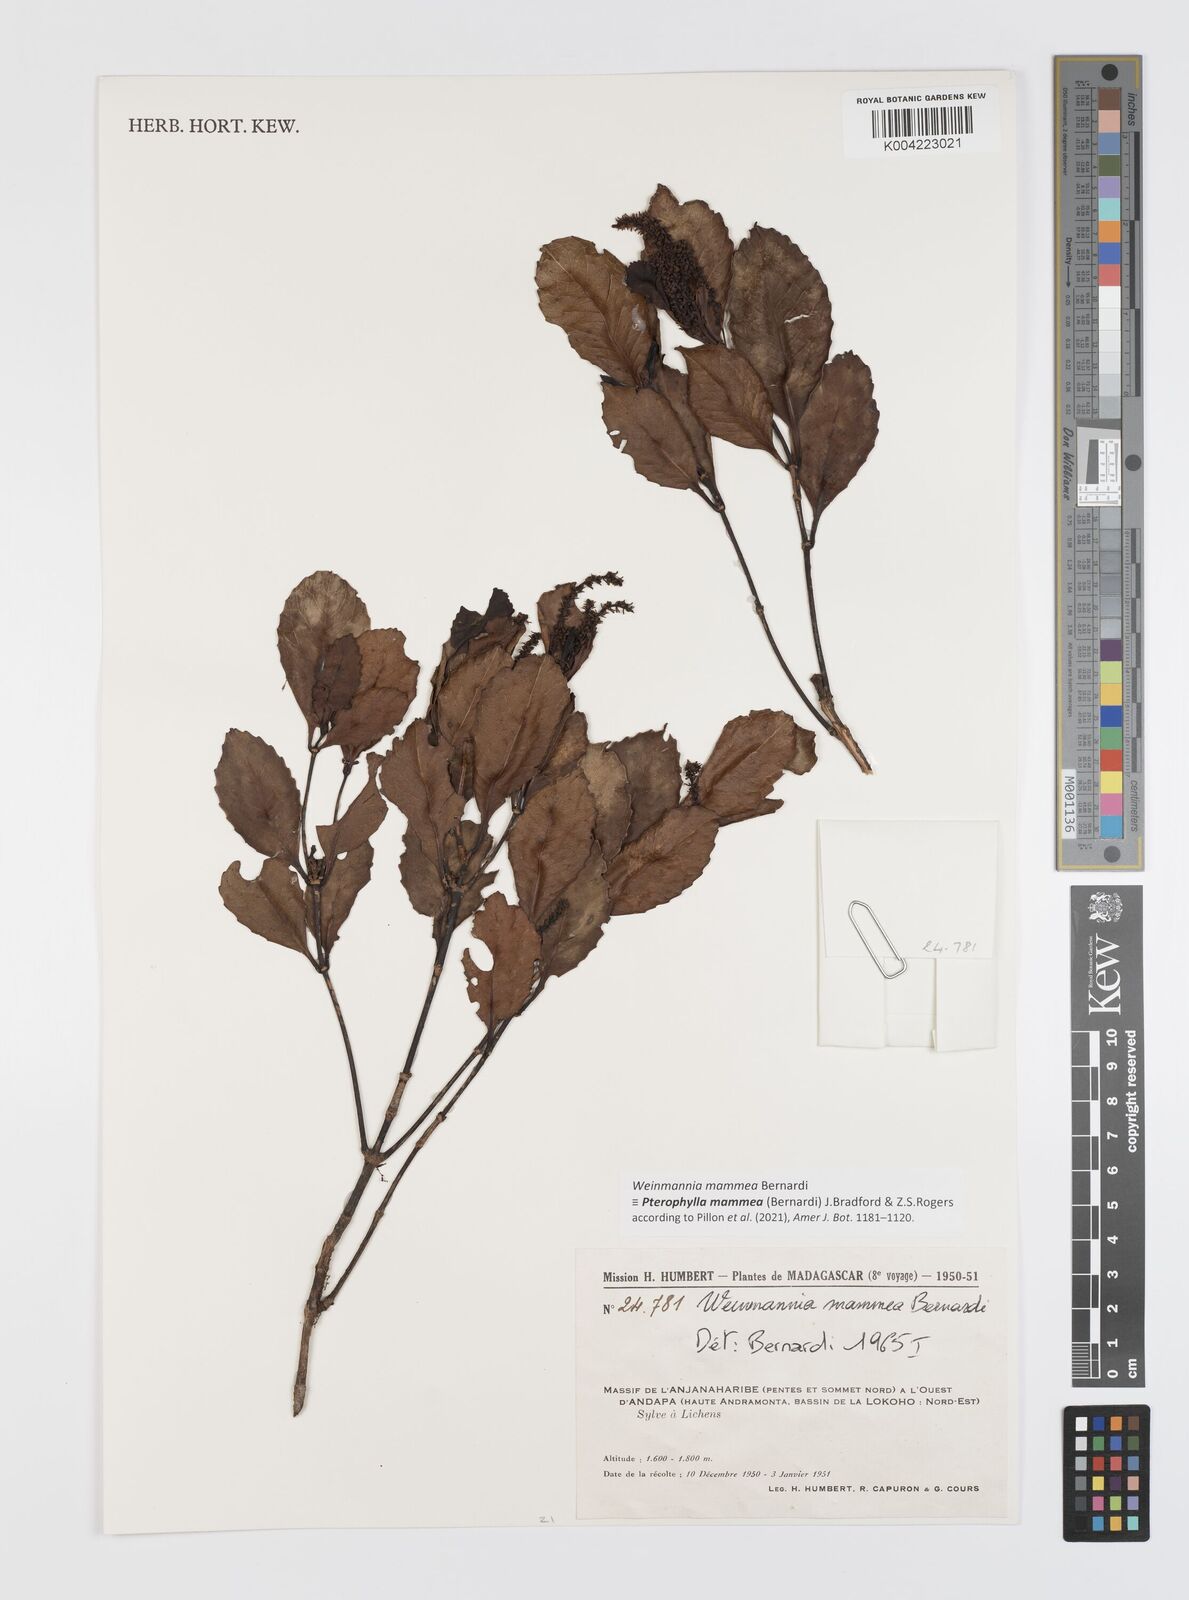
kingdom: Plantae
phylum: Tracheophyta
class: Magnoliopsida
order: Oxalidales
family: Cunoniaceae
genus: Pterophylla
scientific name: Pterophylla mammea
